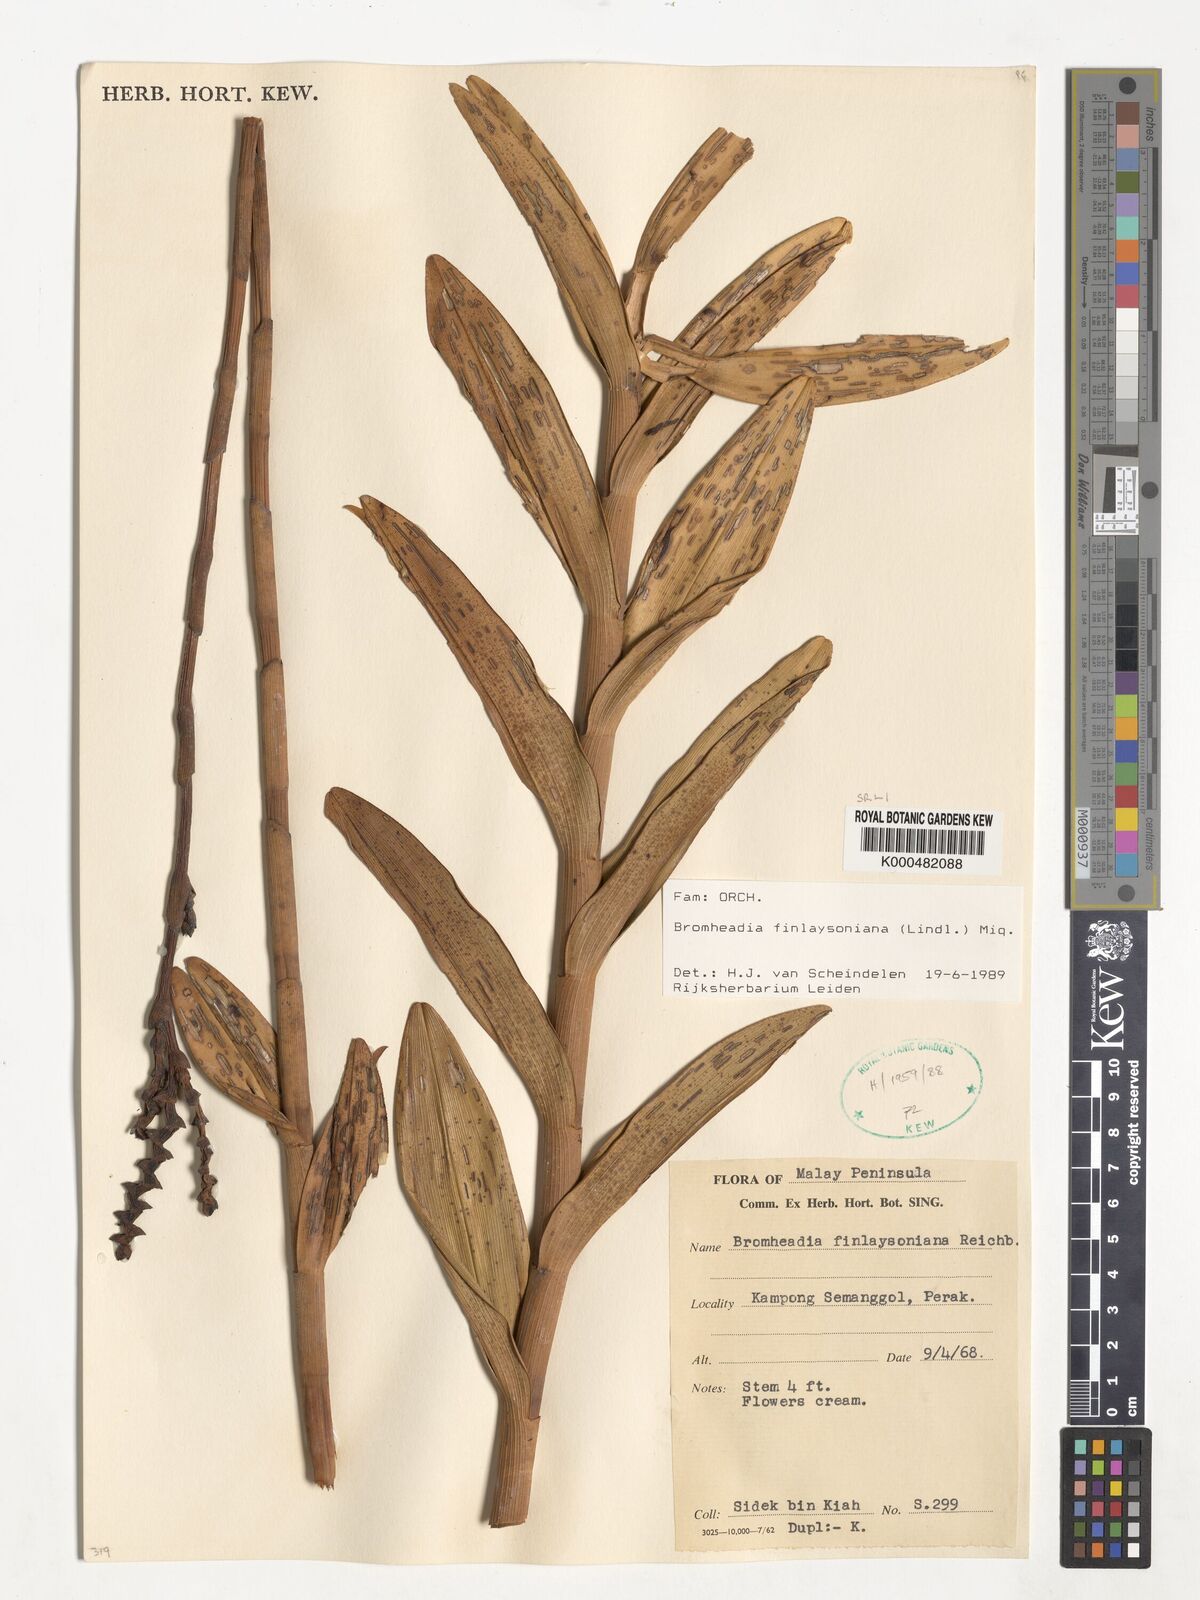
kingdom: Plantae
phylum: Tracheophyta
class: Liliopsida
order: Asparagales
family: Orchidaceae
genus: Bromheadia
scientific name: Bromheadia finlaysoniana
